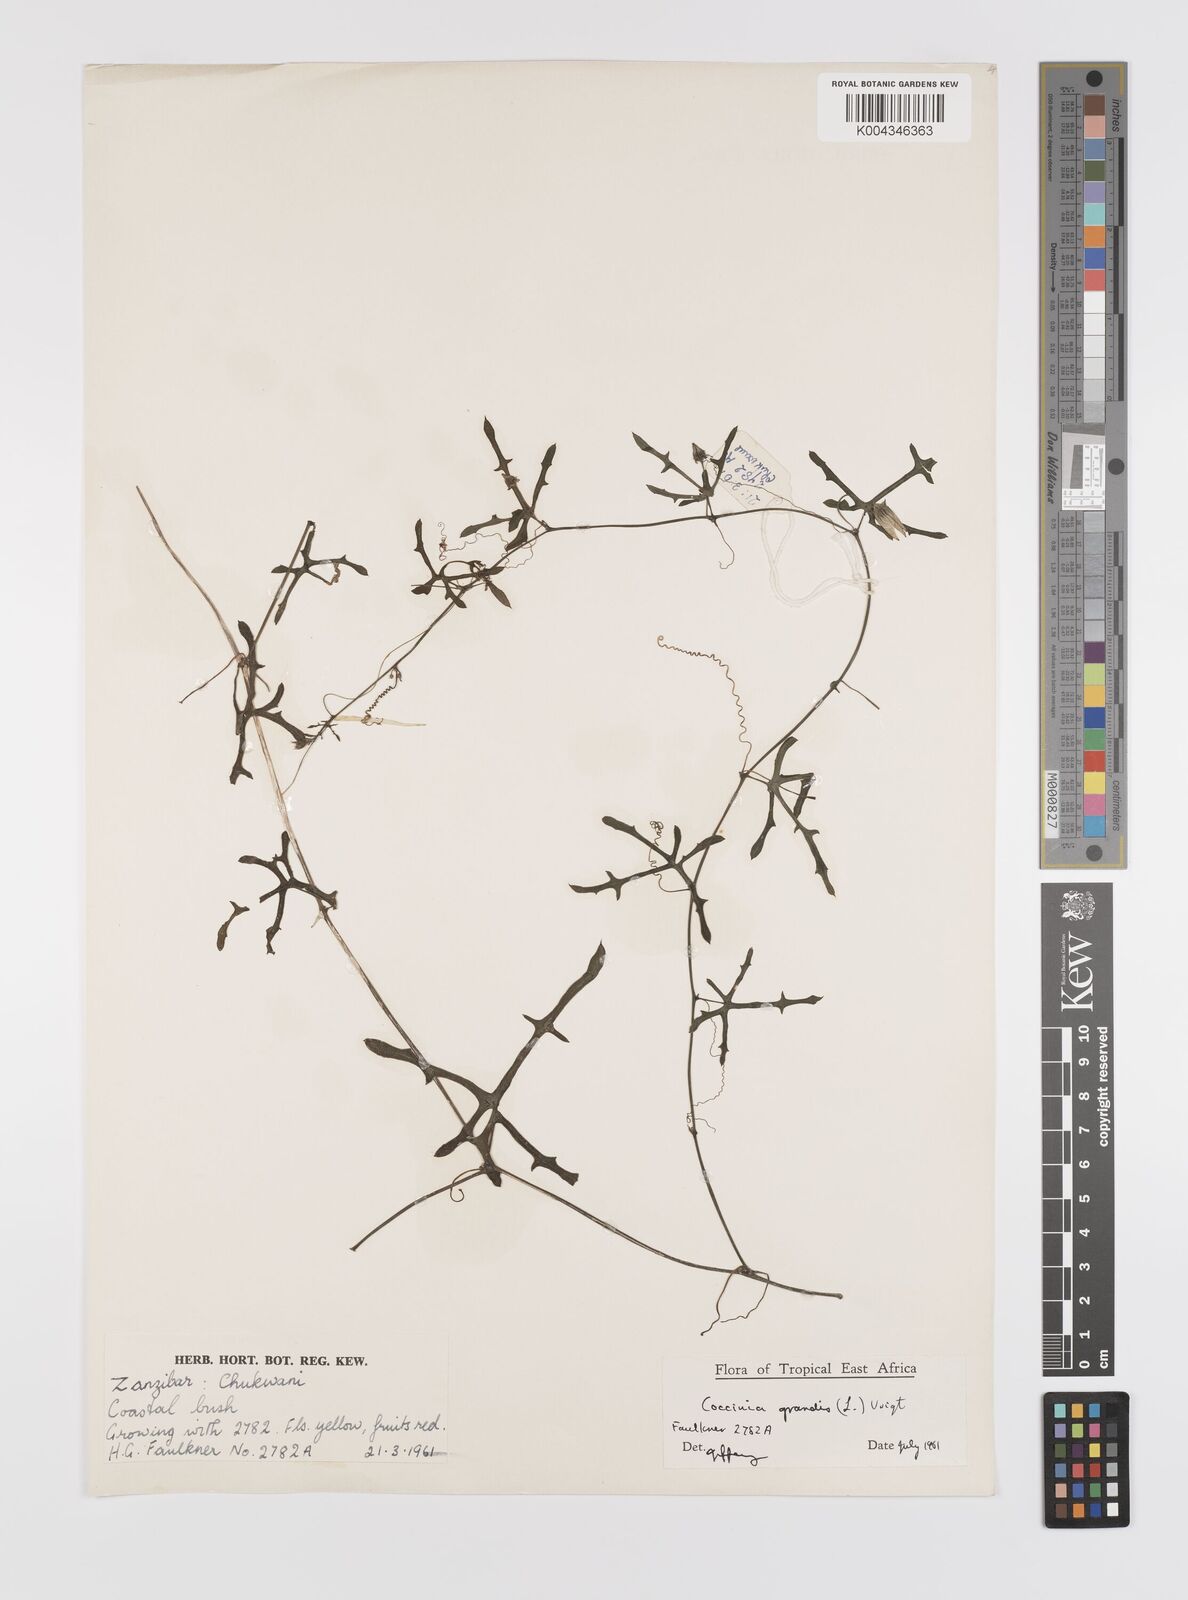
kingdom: Plantae
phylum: Tracheophyta
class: Magnoliopsida
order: Cucurbitales
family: Cucurbitaceae
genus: Coccinia
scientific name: Coccinia grandis
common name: Ivy gourd
